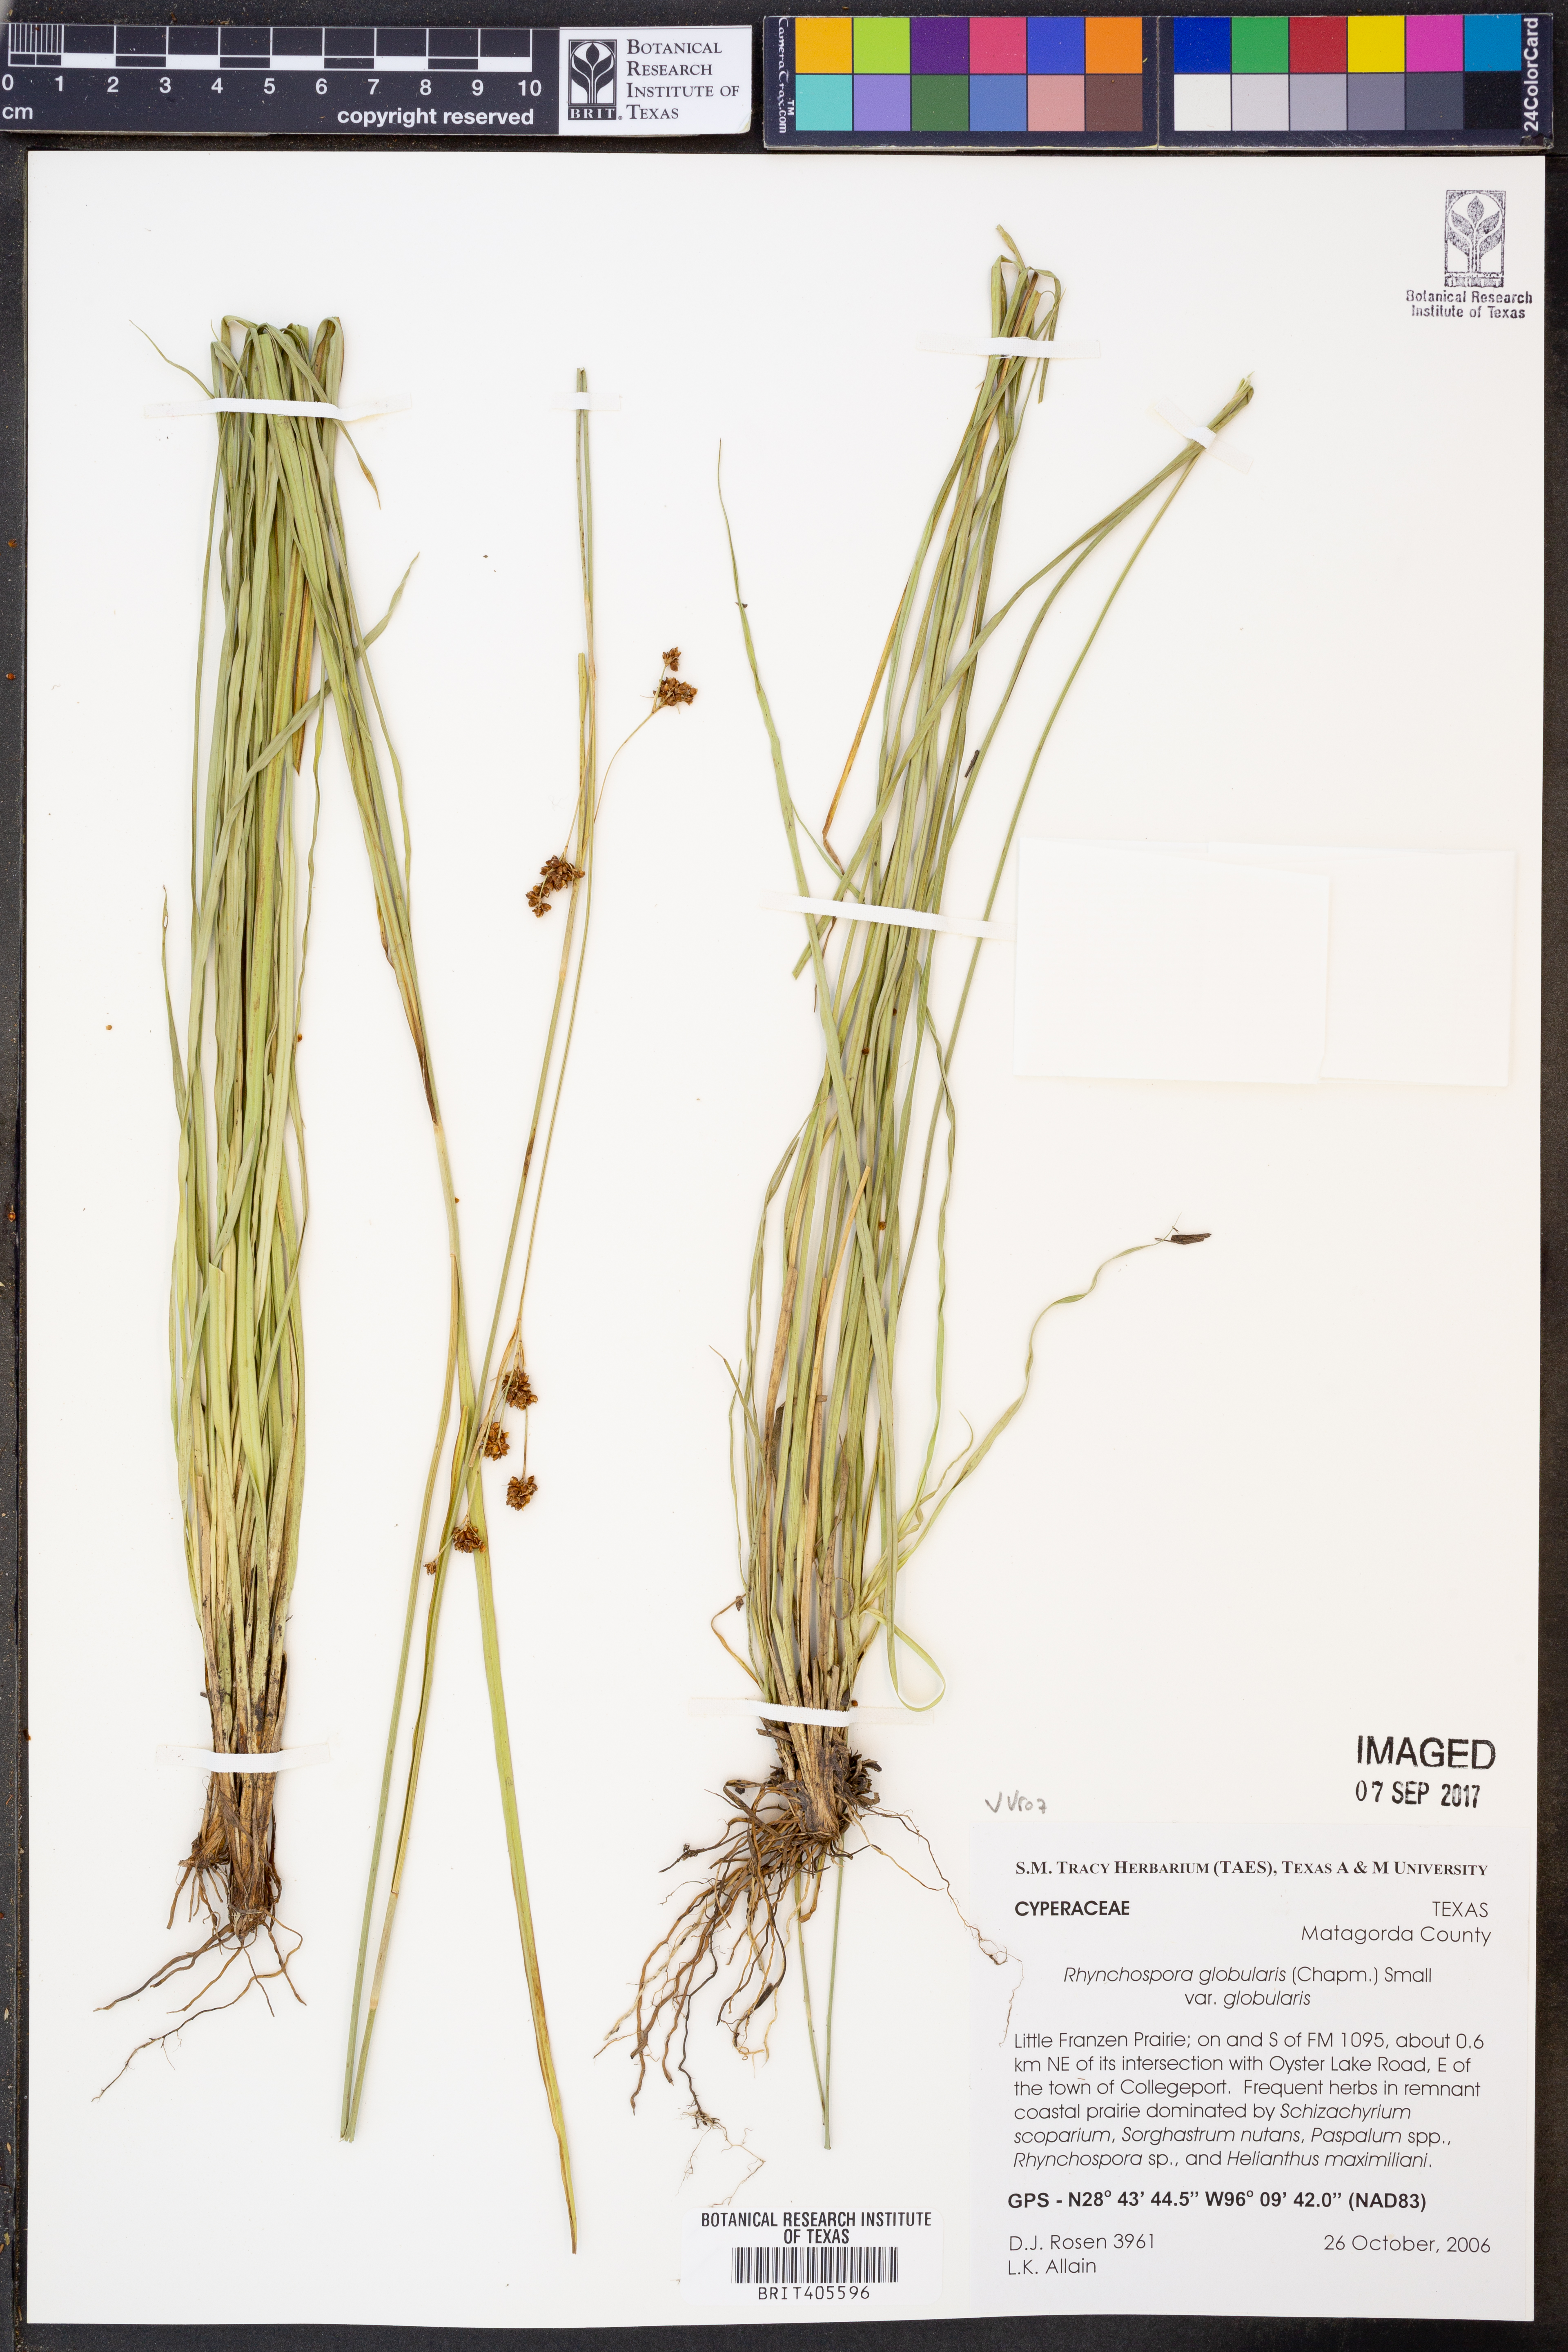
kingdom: Plantae
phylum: Tracheophyta
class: Liliopsida
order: Poales
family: Cyperaceae
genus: Rhynchospora
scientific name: Rhynchospora globularis
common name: Globe beaksedge
